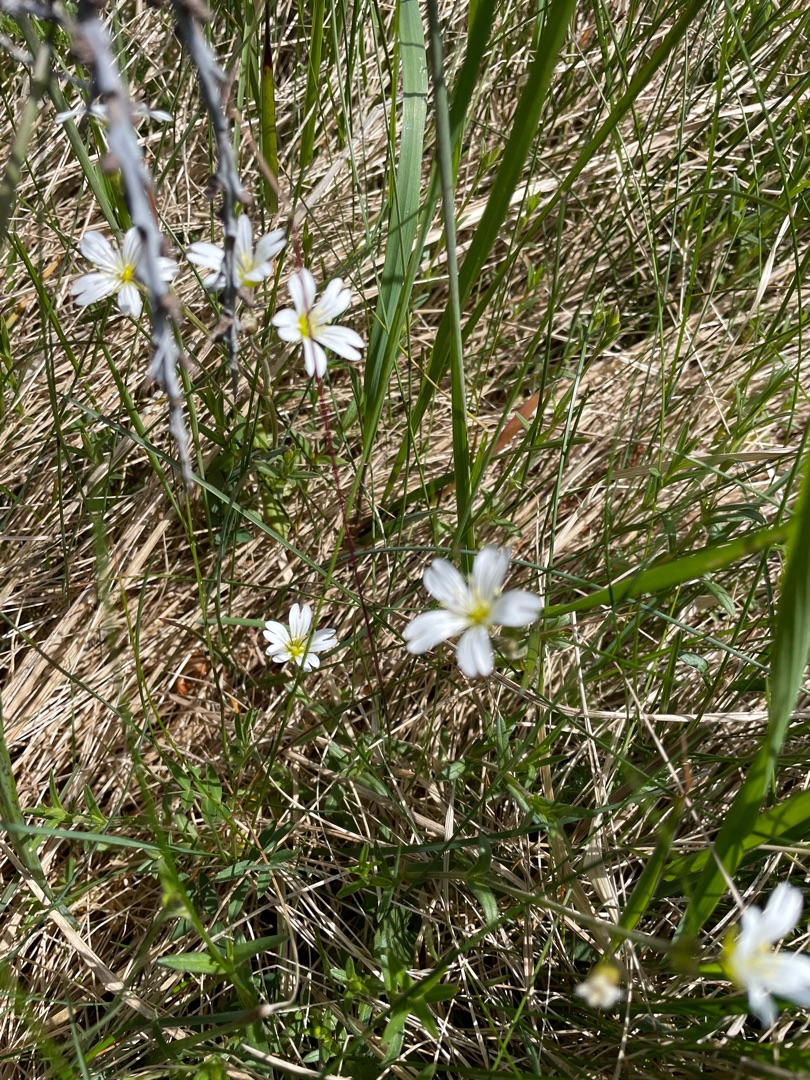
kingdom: Plantae
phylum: Tracheophyta
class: Magnoliopsida
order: Caryophyllales
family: Caryophyllaceae
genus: Cerastium
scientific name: Cerastium arvense
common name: Storblomstret hønsetarm
